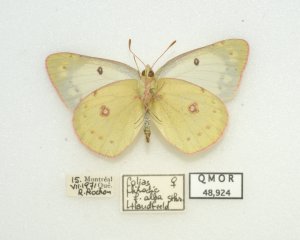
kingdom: Animalia
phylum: Arthropoda
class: Insecta
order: Lepidoptera
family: Pieridae
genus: Colias
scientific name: Colias philodice
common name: Clouded Sulphur
